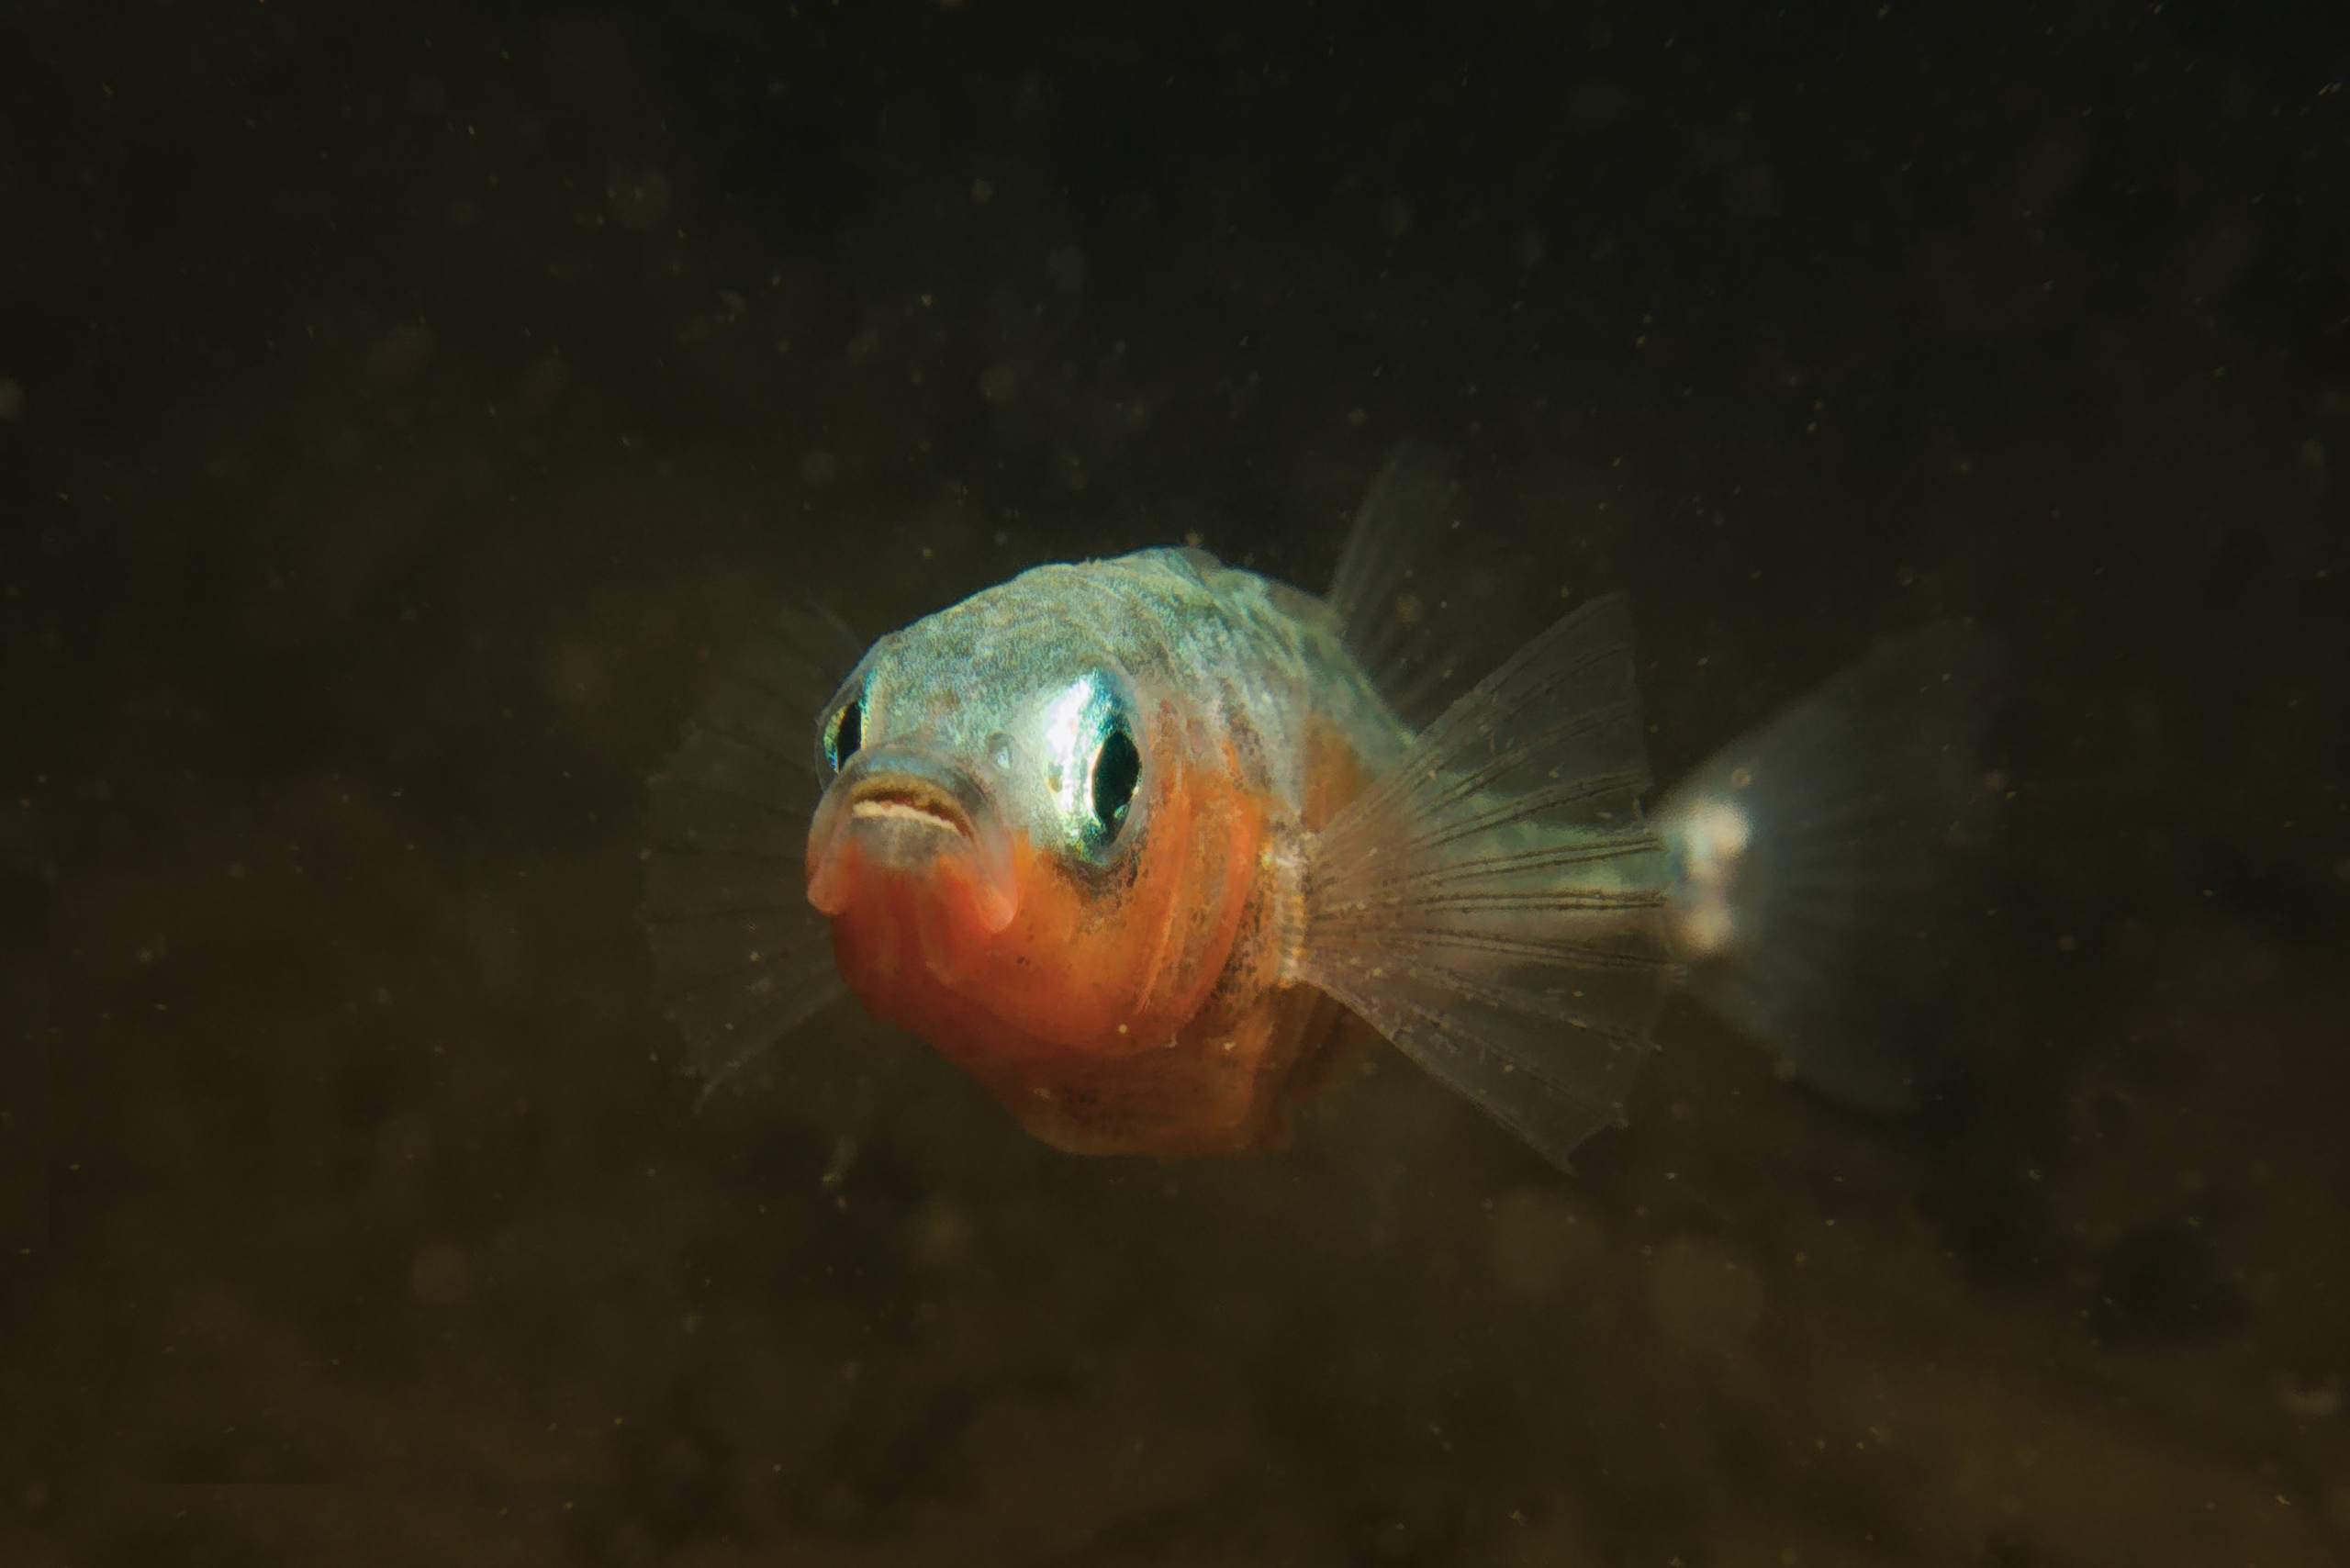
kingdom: Animalia
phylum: Chordata
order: Gasterosteiformes
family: Gasterosteidae
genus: Gasterosteus
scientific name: Gasterosteus aculeatus
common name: Trepigget hundestejle
